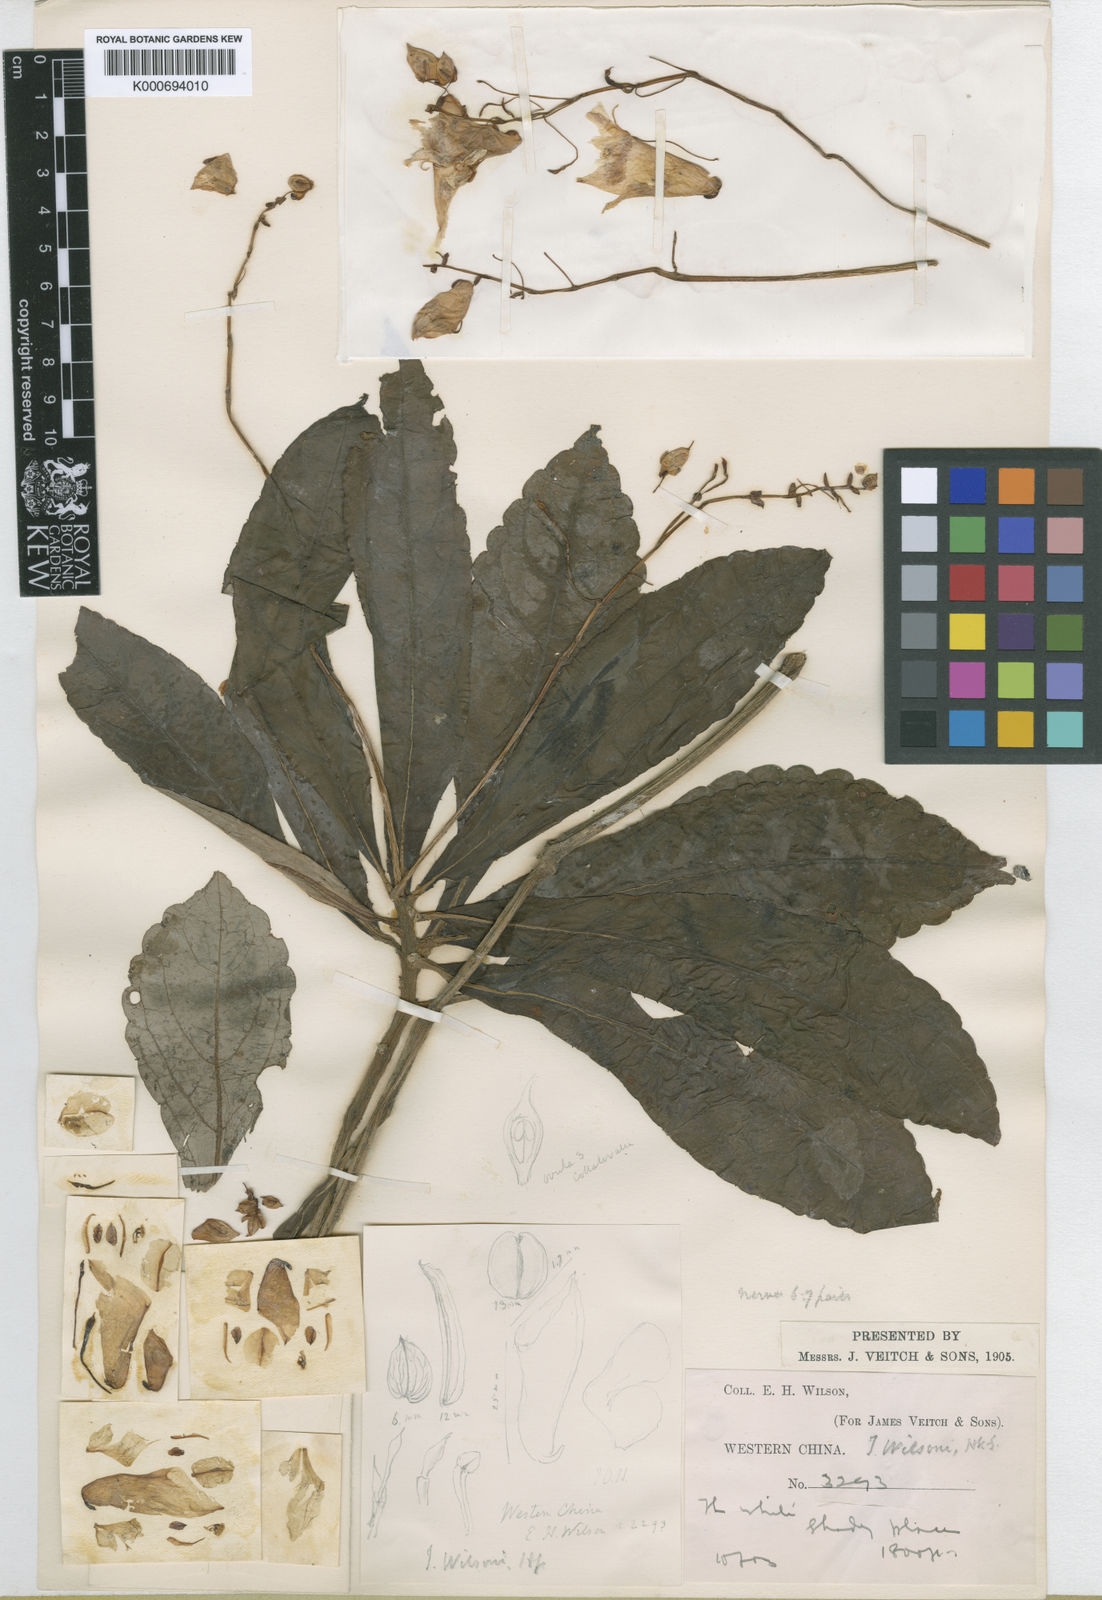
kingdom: Plantae
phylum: Tracheophyta
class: Magnoliopsida
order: Ericales
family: Balsaminaceae
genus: Impatiens
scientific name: Impatiens wilsonii
